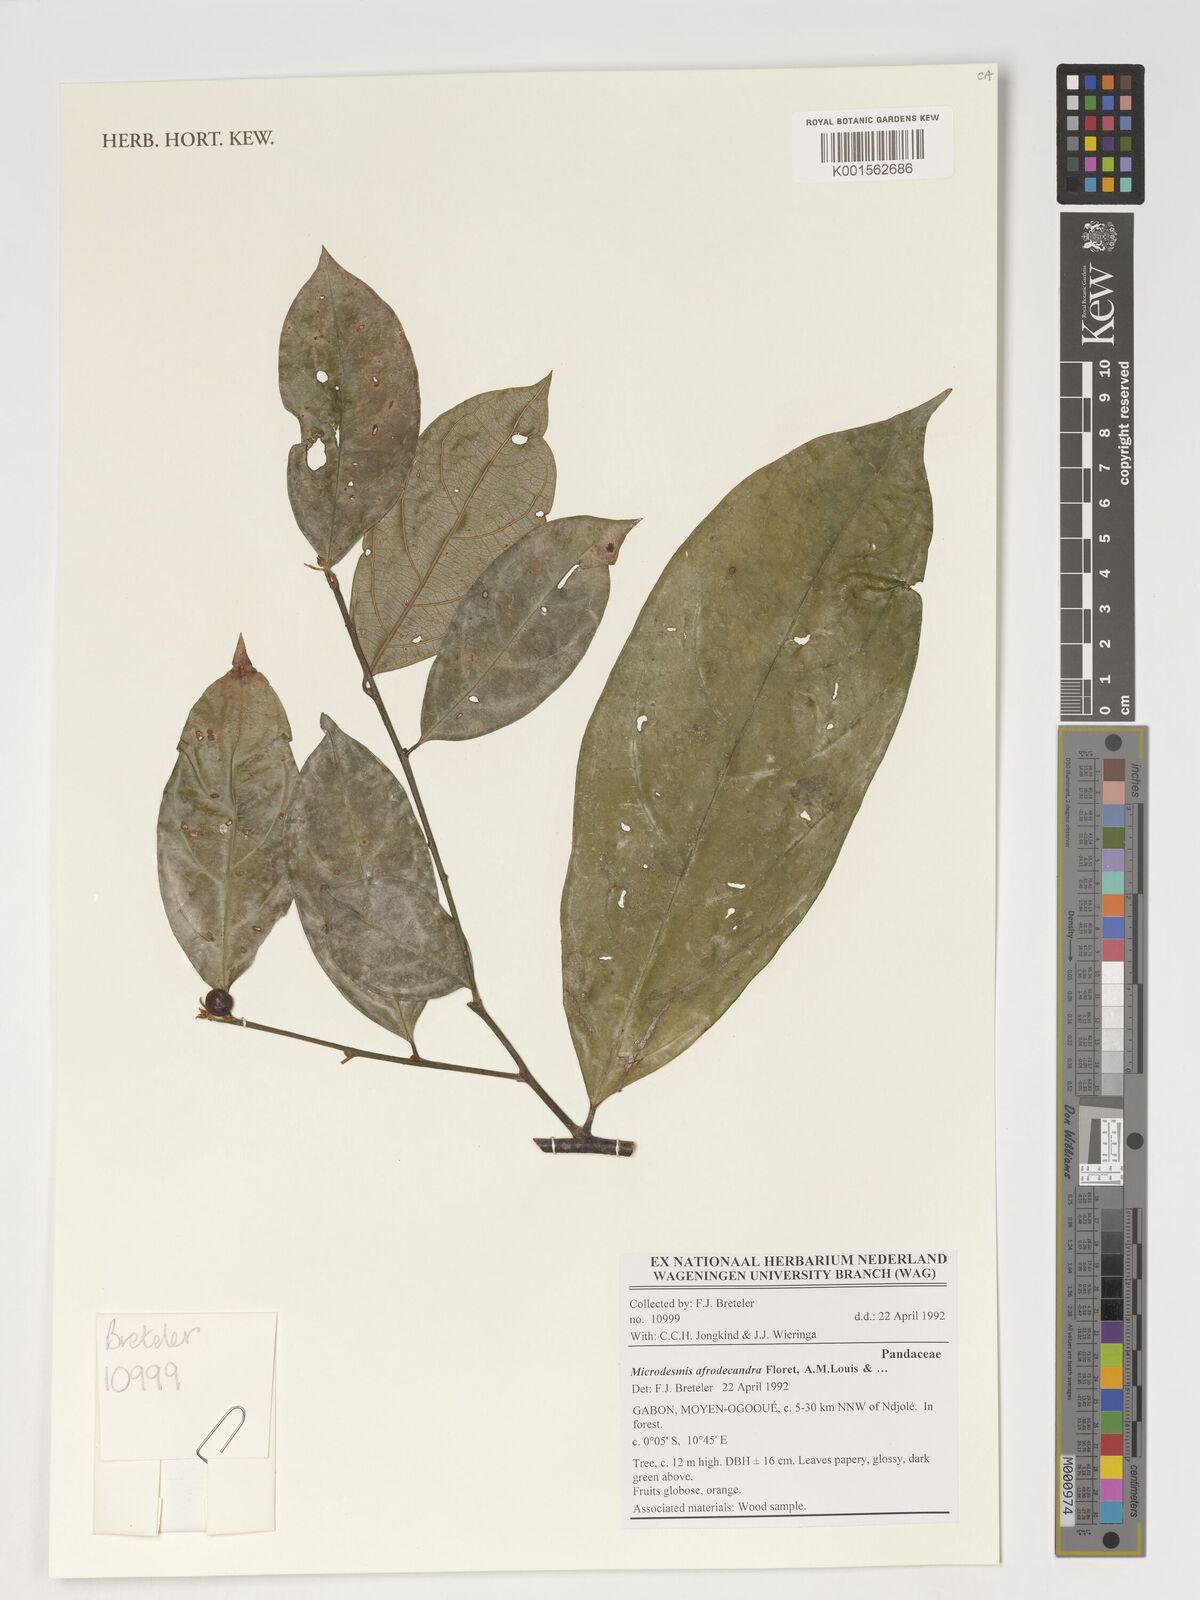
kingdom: Plantae
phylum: Tracheophyta
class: Magnoliopsida
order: Malpighiales
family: Pandaceae
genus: Microdesmis
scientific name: Microdesmis afrodecandra
